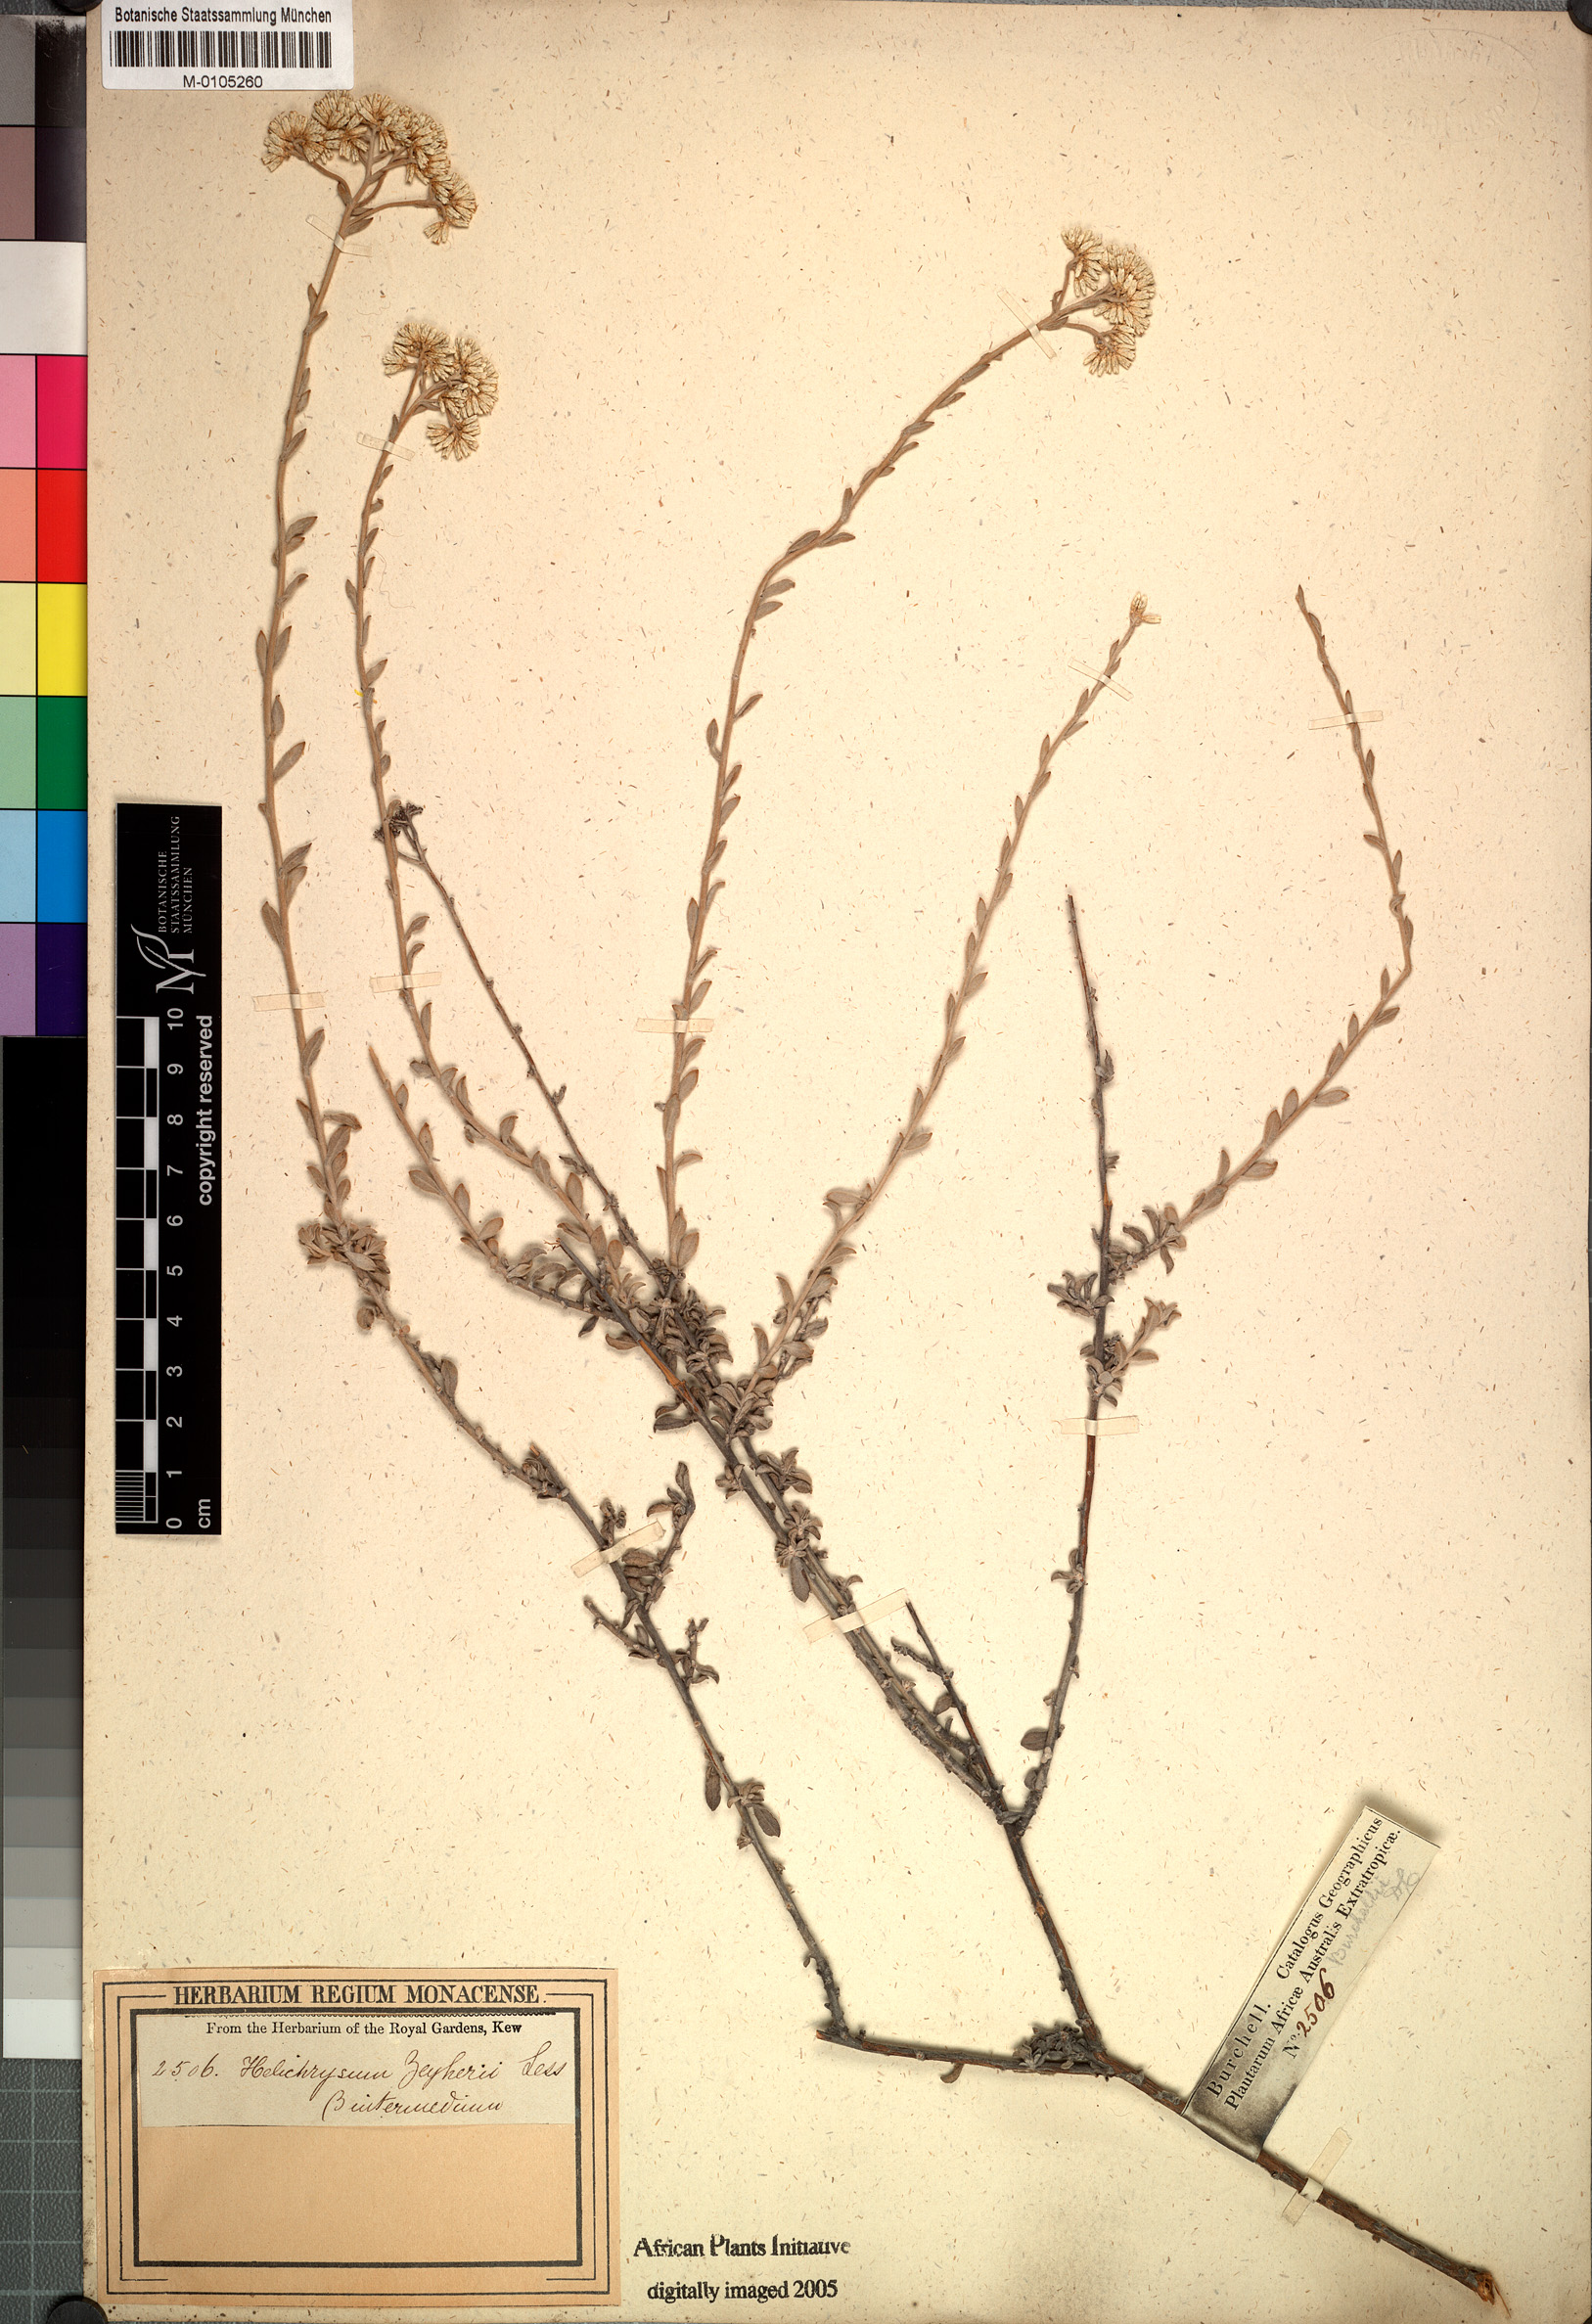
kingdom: Plantae
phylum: Tracheophyta
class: Magnoliopsida
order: Asterales
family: Asteraceae
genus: Helichrysum
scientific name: Helichrysum zeyheri
